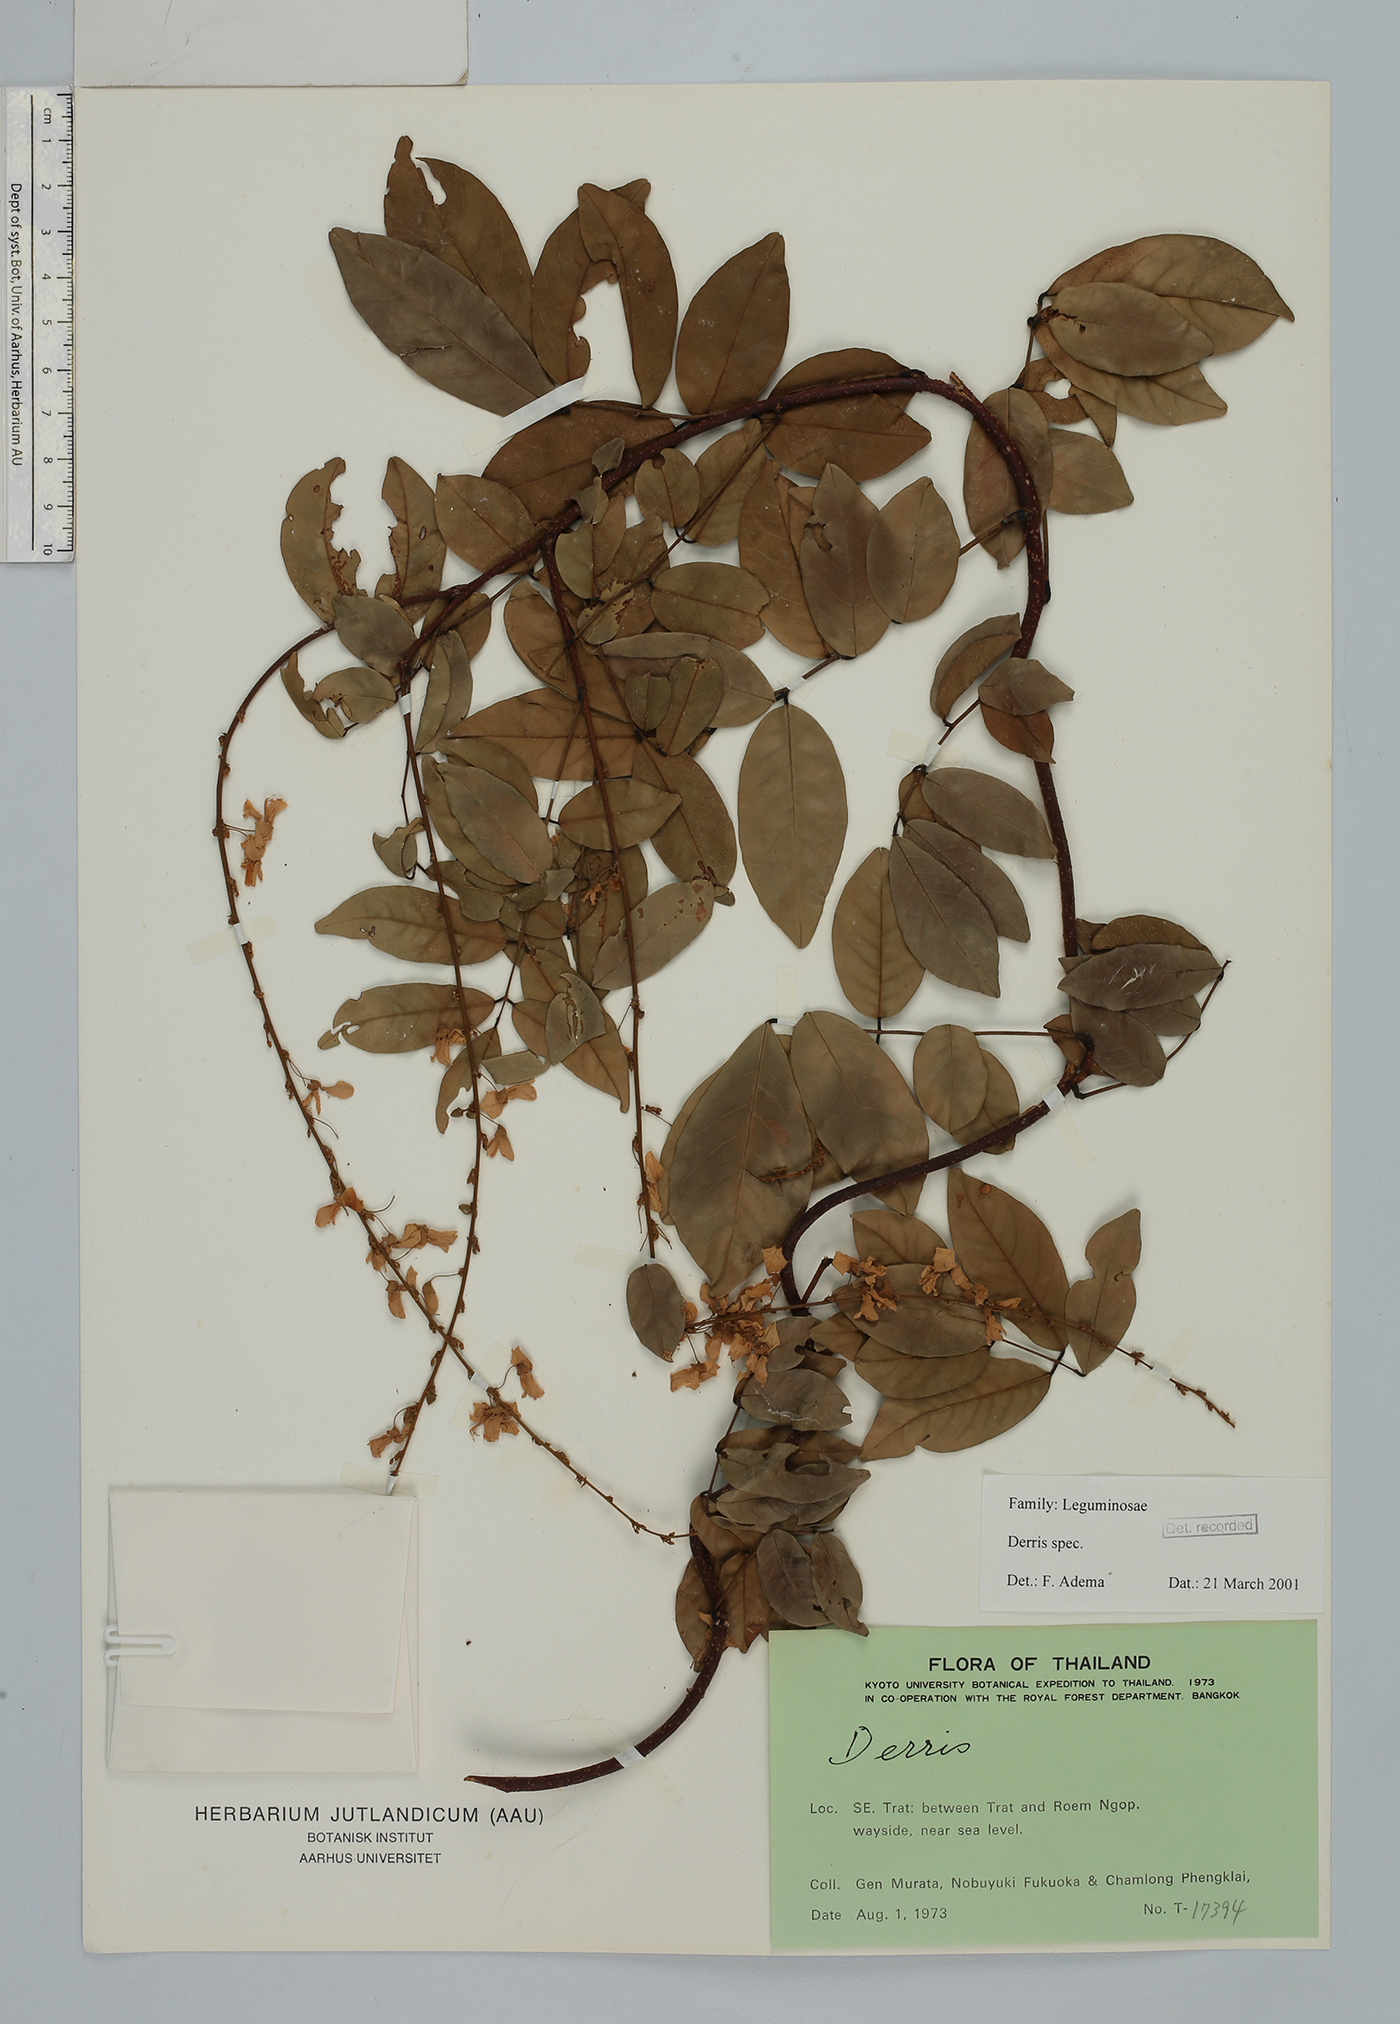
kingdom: Plantae
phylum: Tracheophyta
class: Magnoliopsida
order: Fabales
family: Fabaceae
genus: Derris
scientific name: Derris
